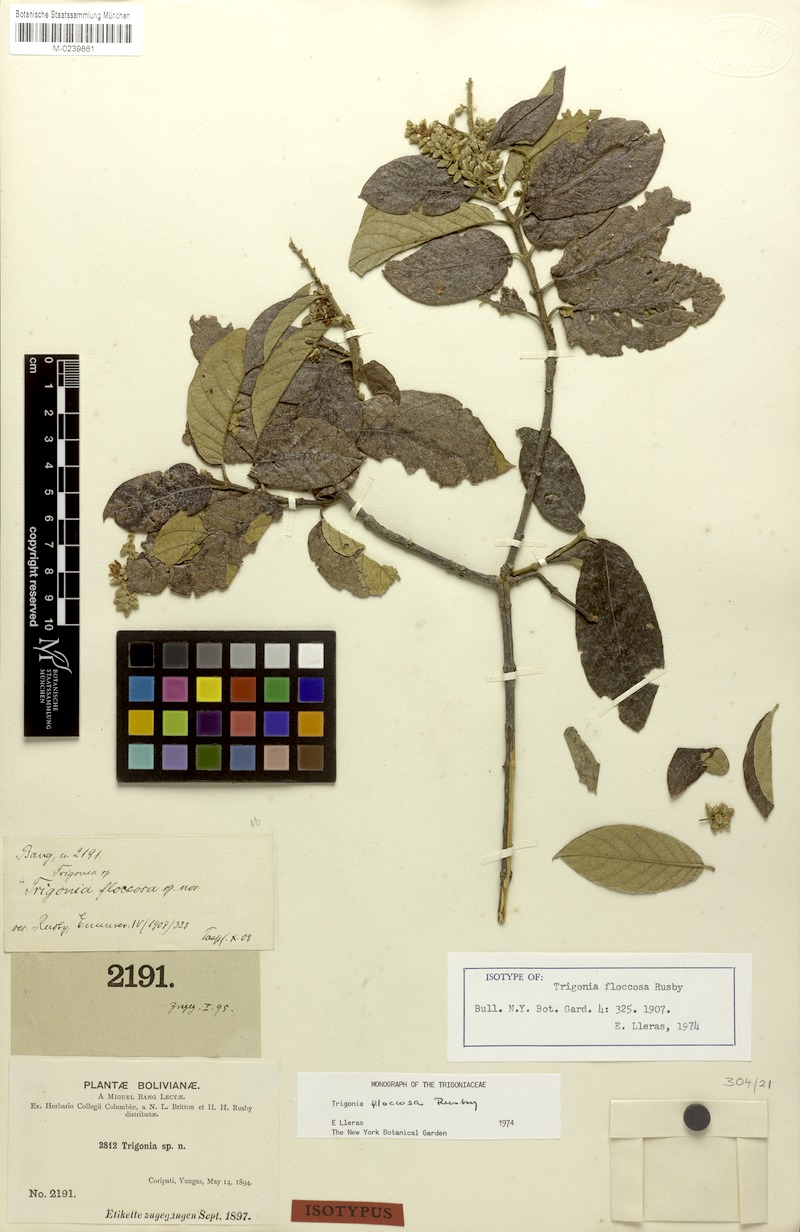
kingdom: Plantae
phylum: Tracheophyta
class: Magnoliopsida
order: Malpighiales
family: Trigoniaceae
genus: Trigonia
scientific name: Trigonia floccosa
